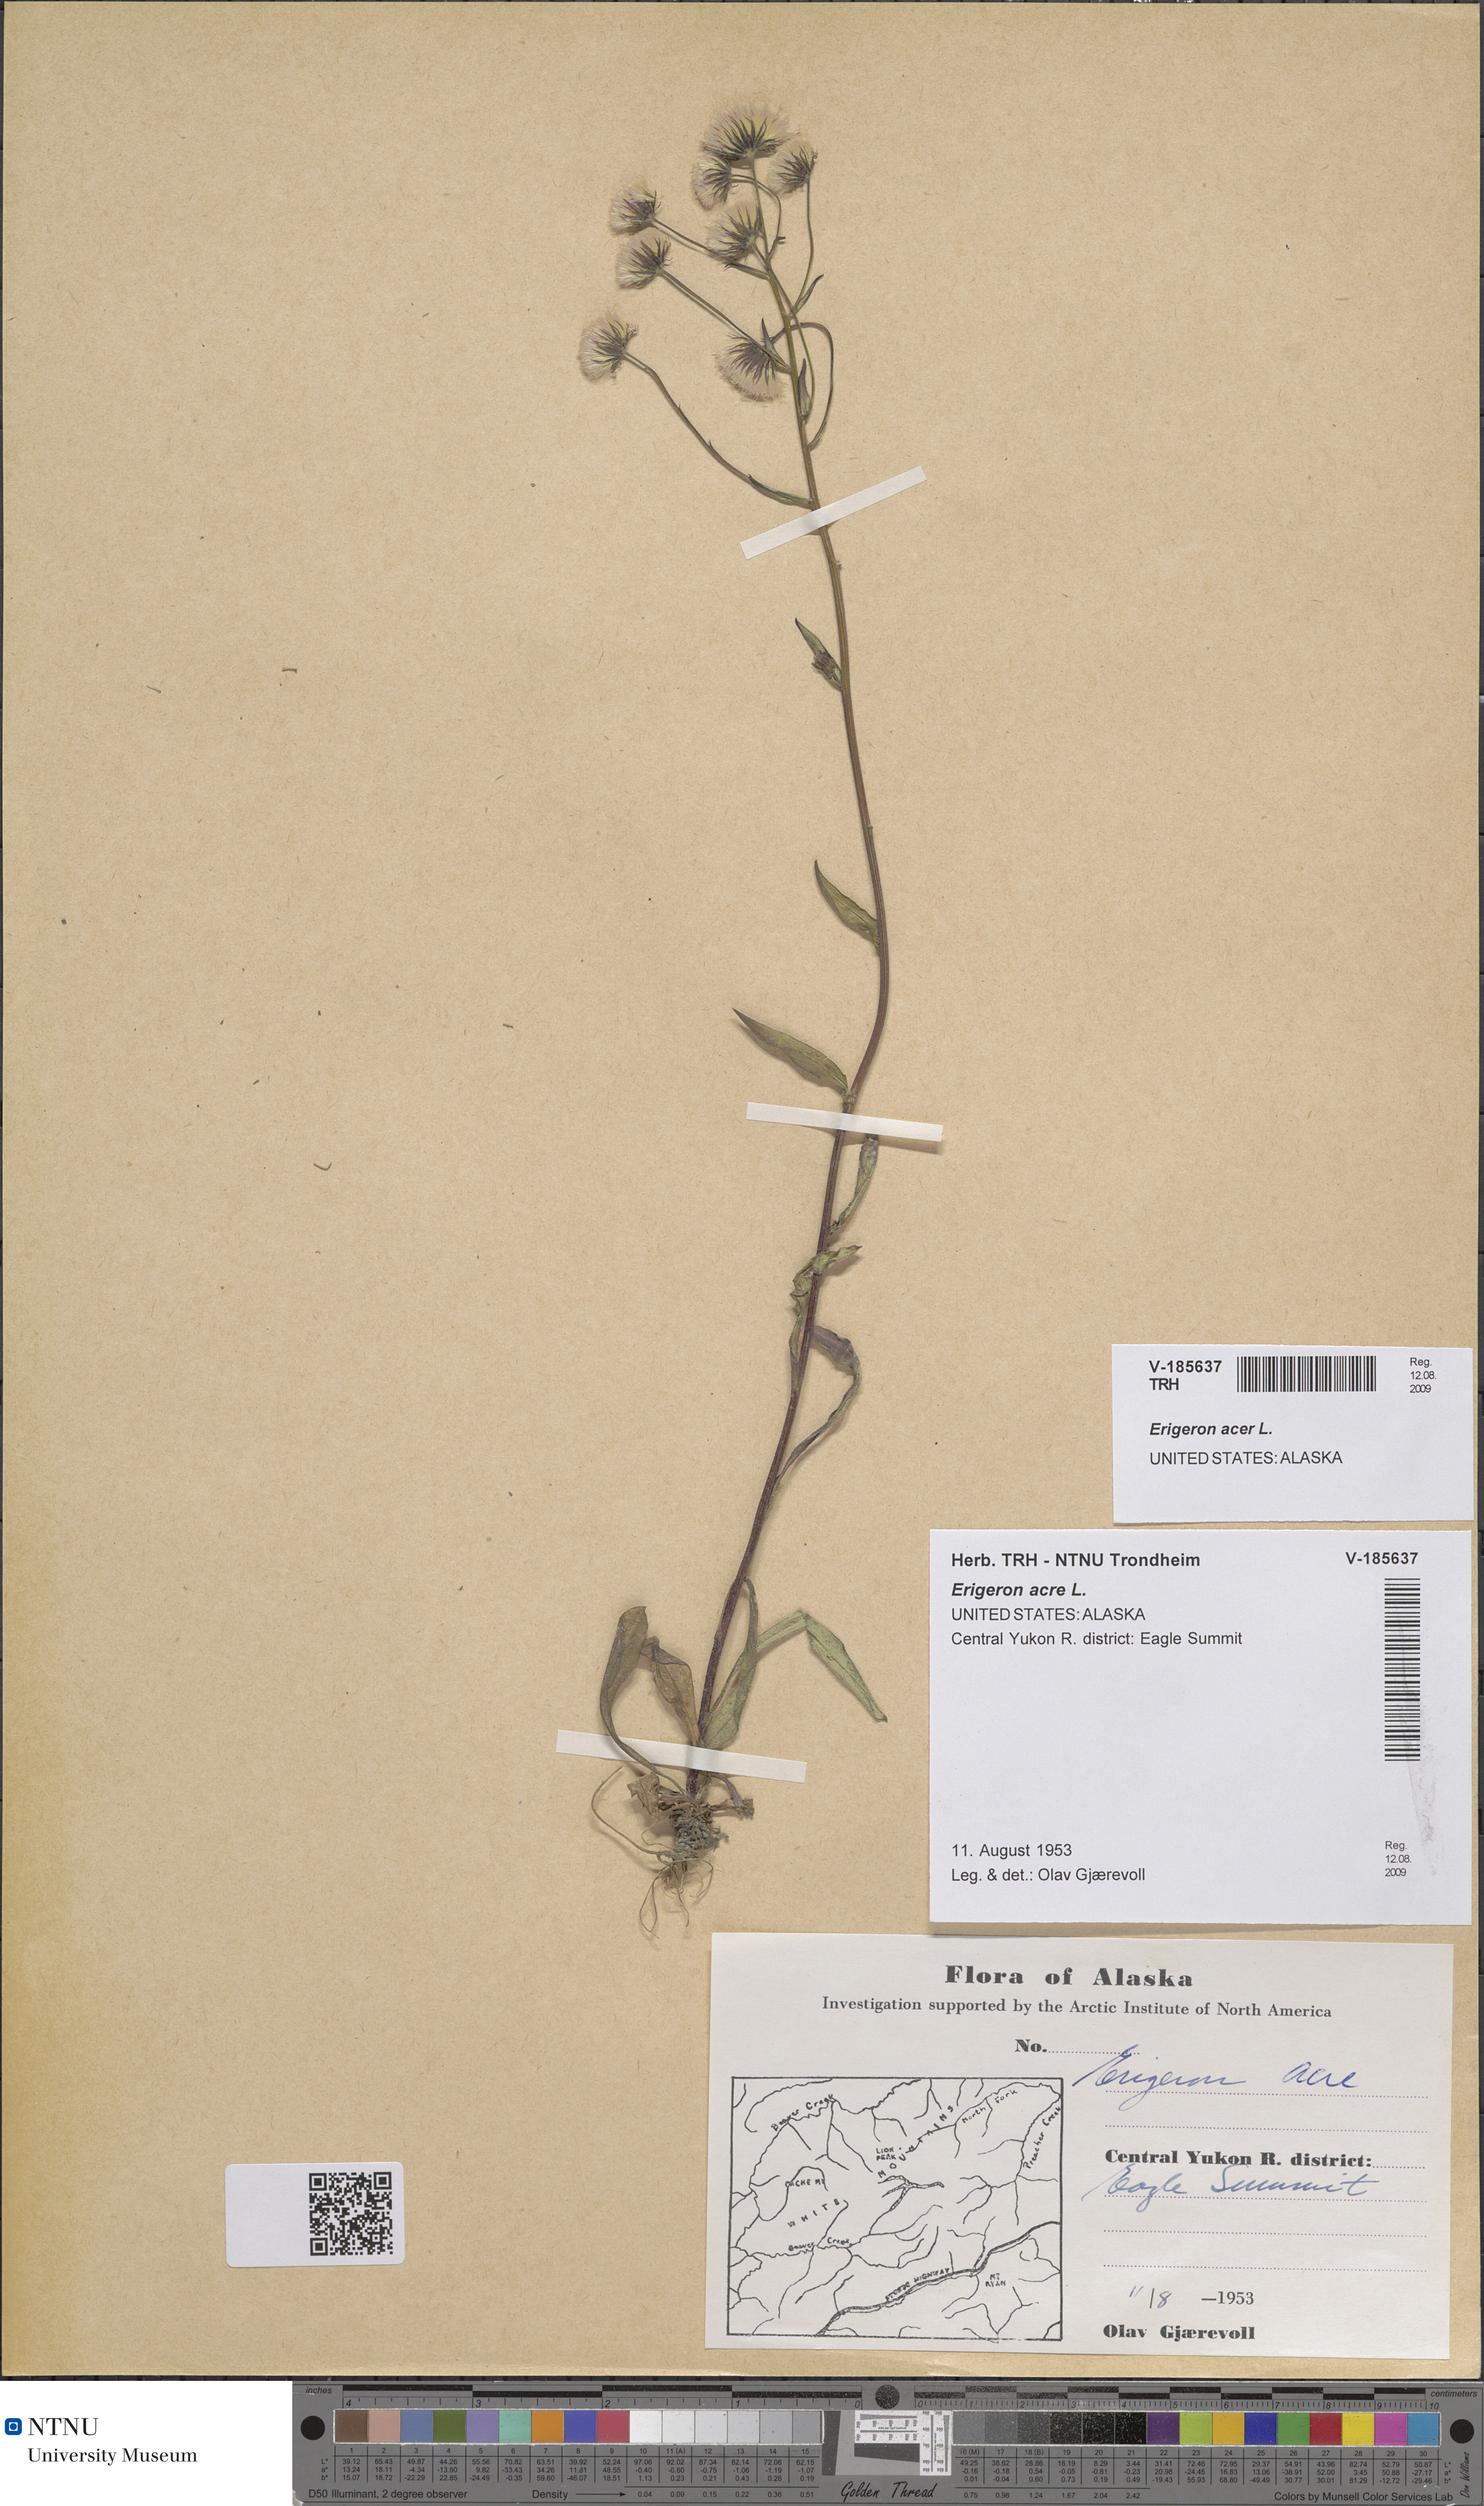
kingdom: Plantae
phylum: Tracheophyta
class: Magnoliopsida
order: Asterales
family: Asteraceae
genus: Erigeron
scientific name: Erigeron acris
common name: Blue fleabane
